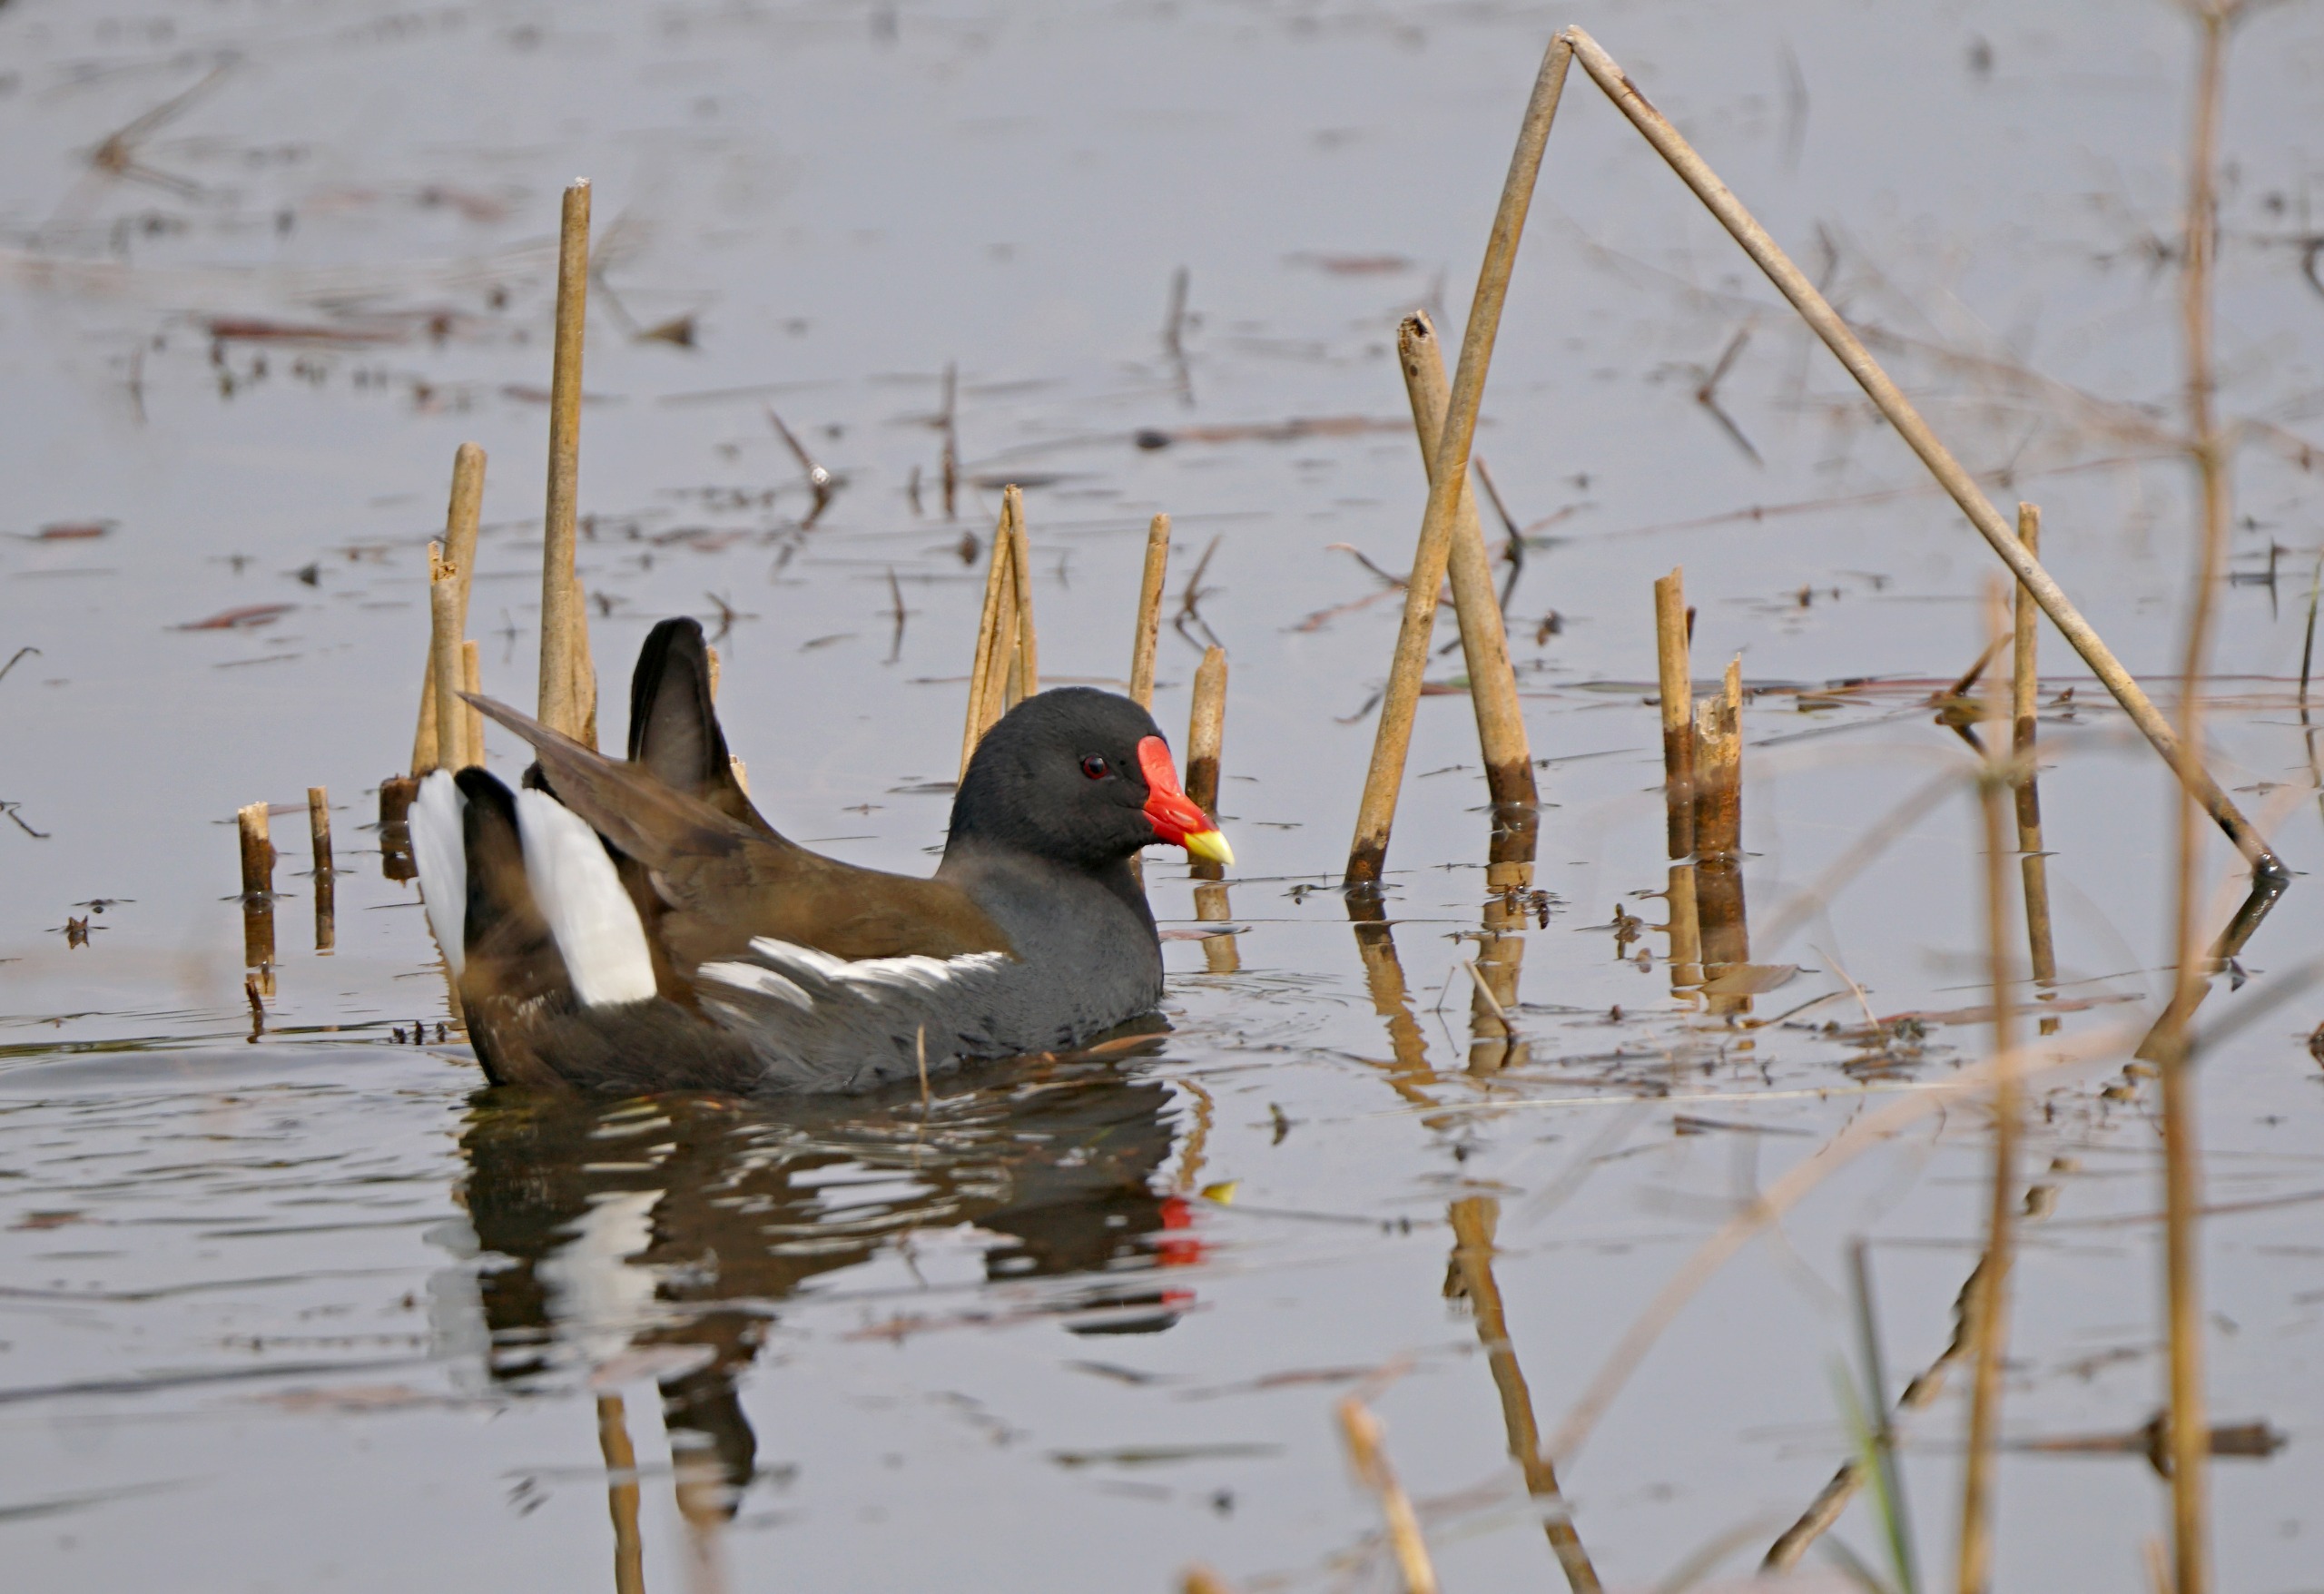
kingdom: Animalia
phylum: Chordata
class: Aves
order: Gruiformes
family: Rallidae
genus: Gallinula
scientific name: Gallinula chloropus
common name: Grønbenet rørhøne
